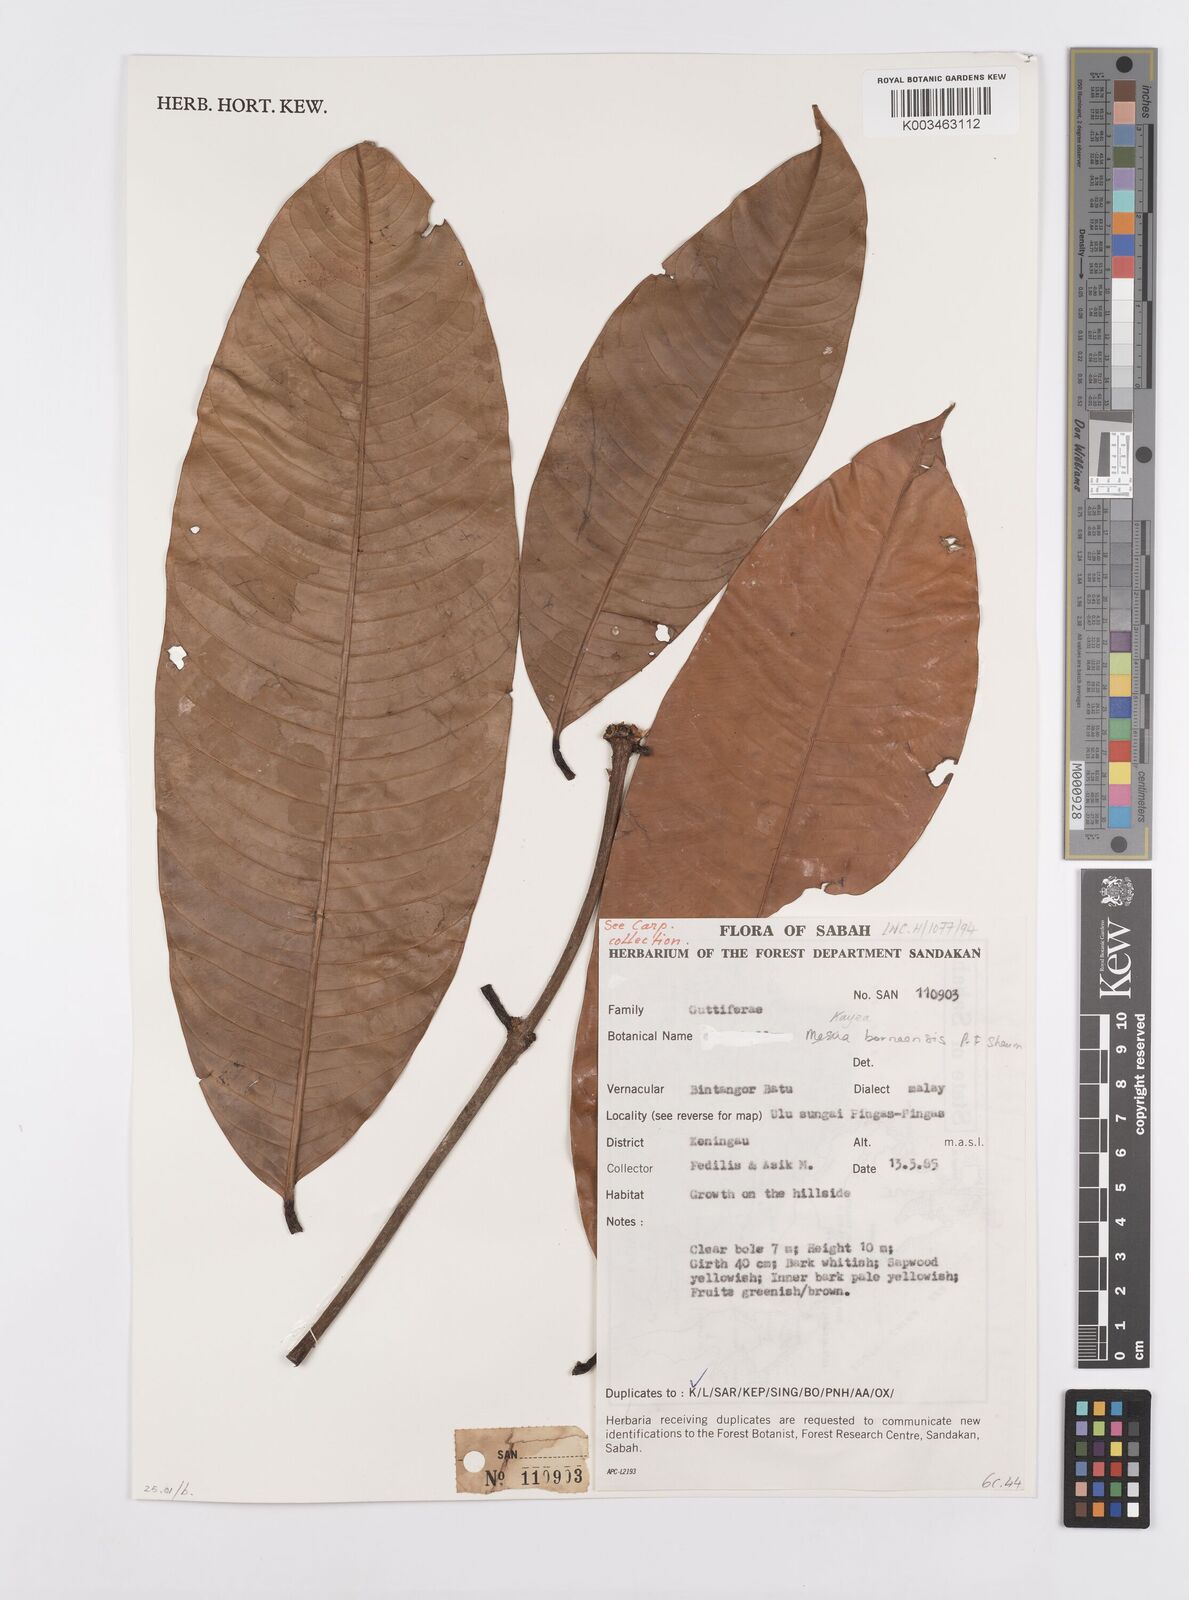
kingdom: Plantae
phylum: Tracheophyta
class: Magnoliopsida
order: Malpighiales
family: Calophyllaceae
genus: Kayea
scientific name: Kayea borneensis
